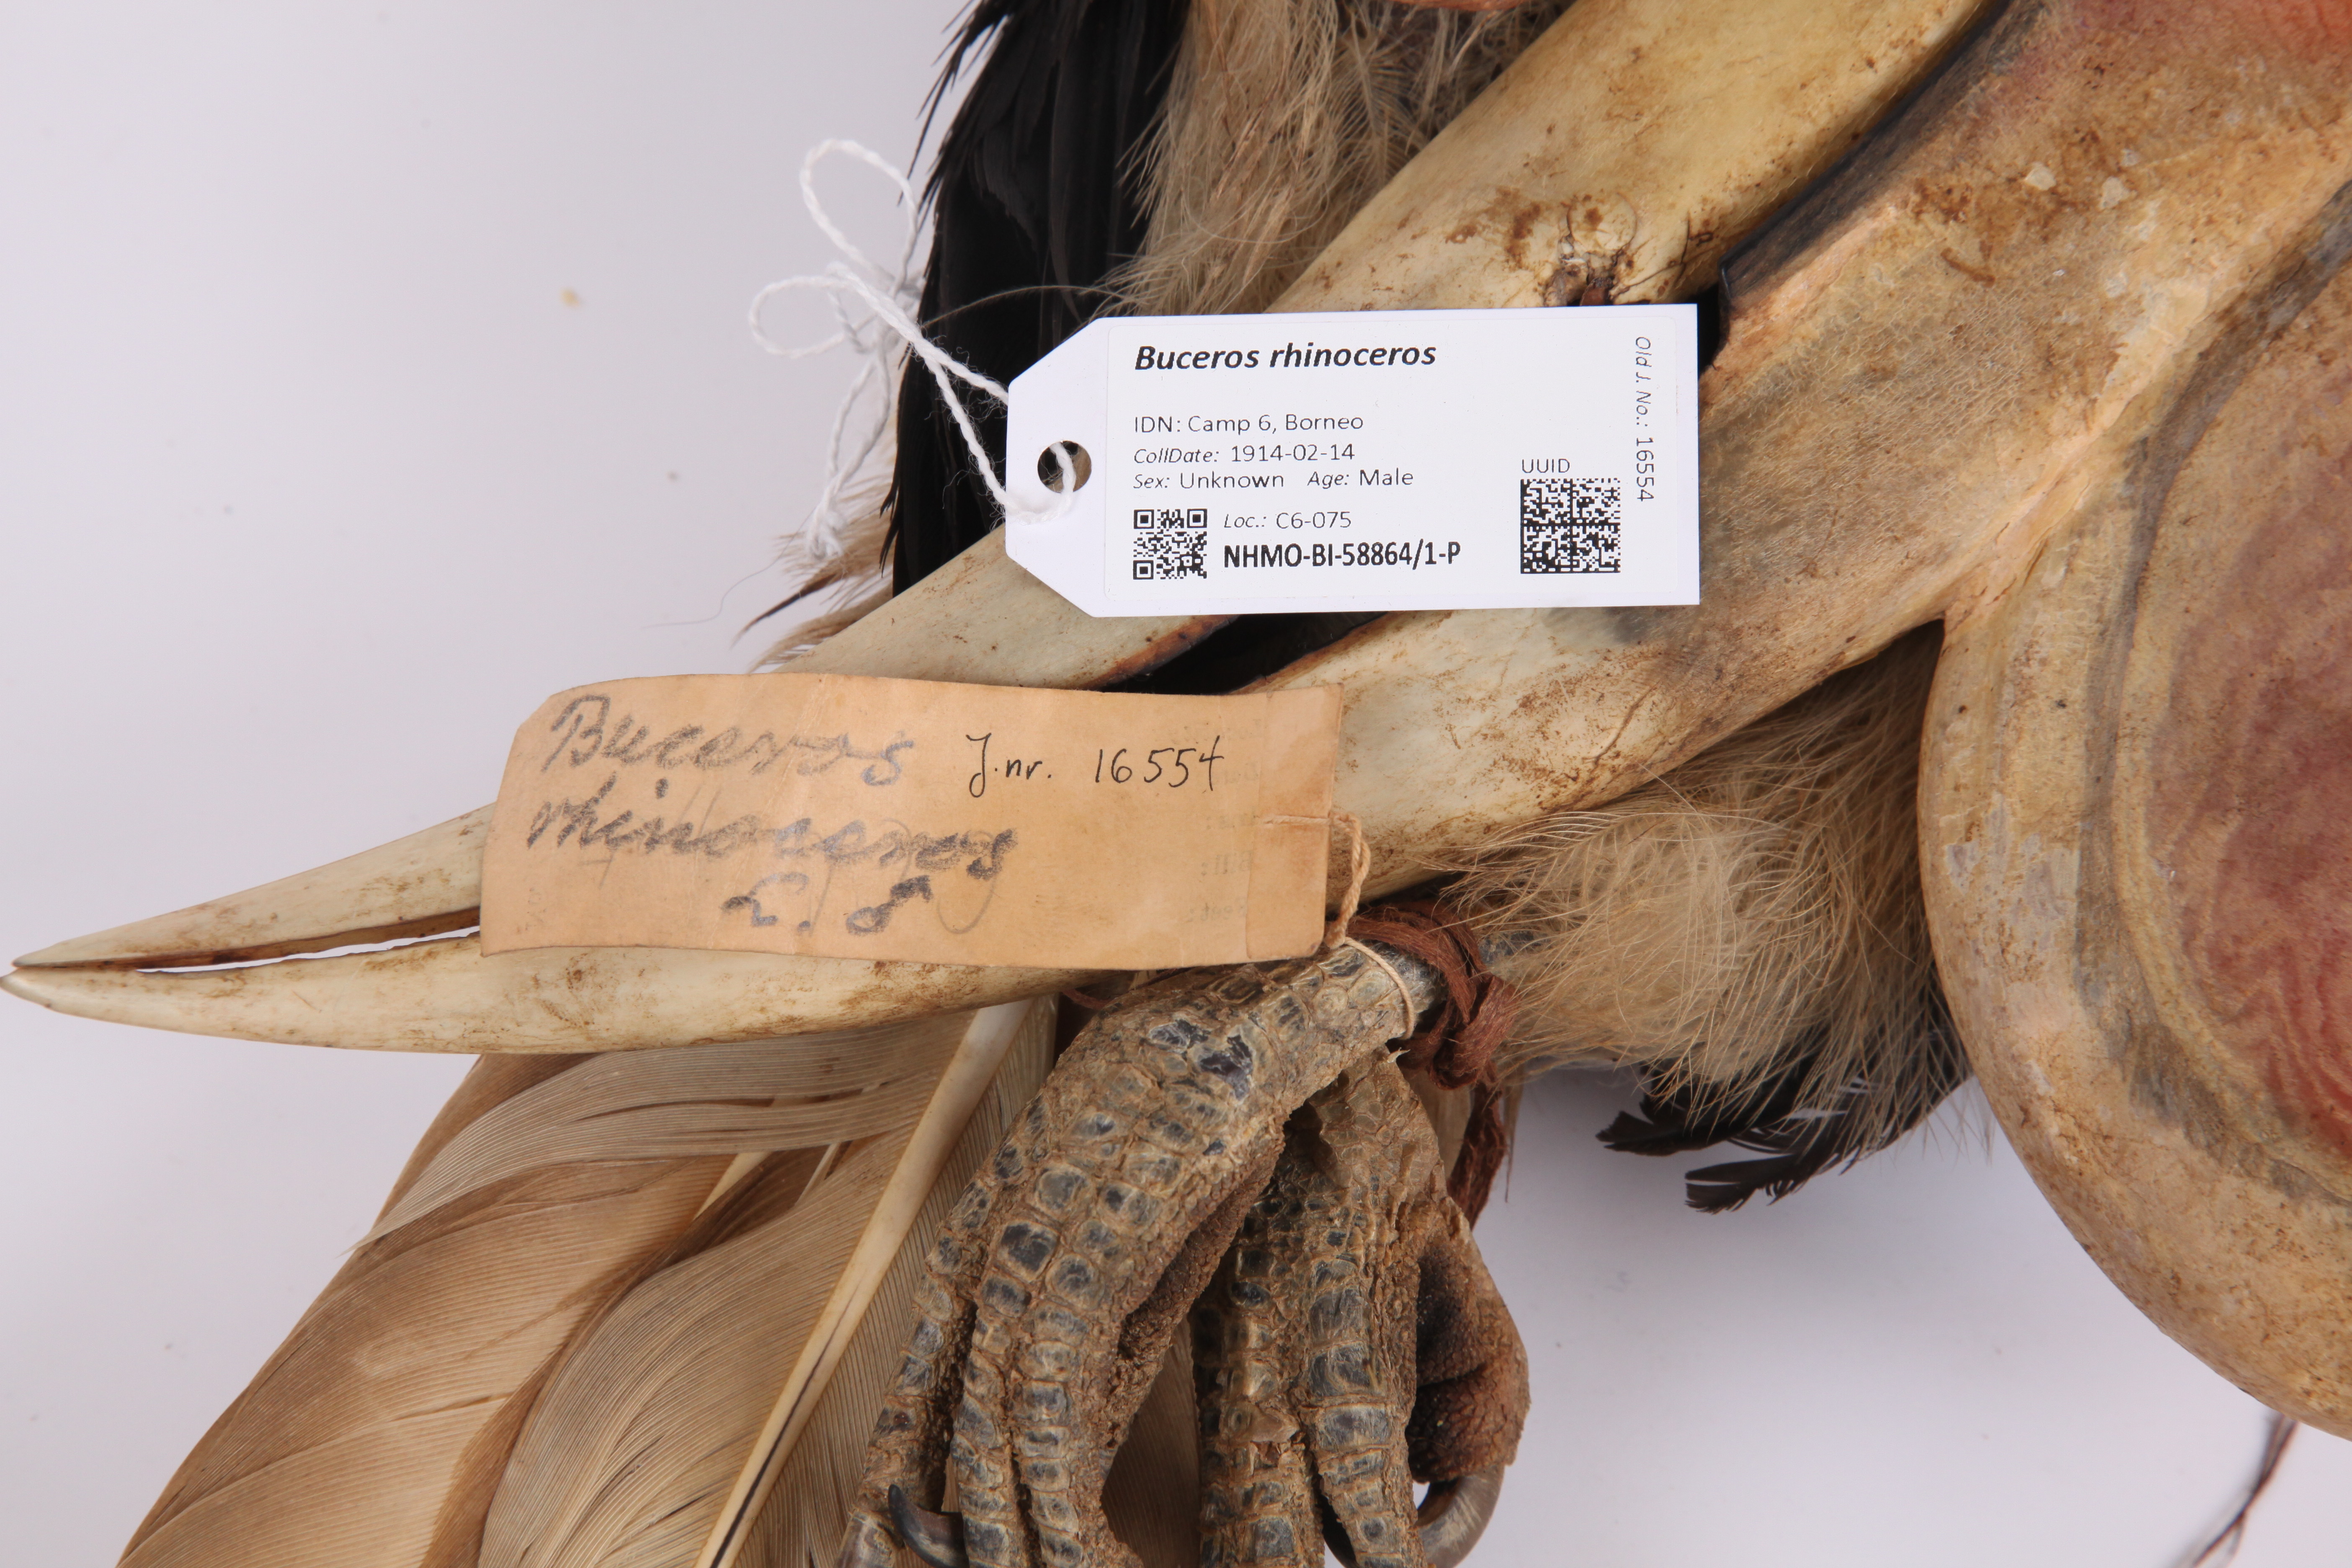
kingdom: Animalia
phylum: Chordata
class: Aves
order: Bucerotiformes
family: Bucerotidae
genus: Buceros
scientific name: Buceros rhinoceros
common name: Rhinoceros hornbill
